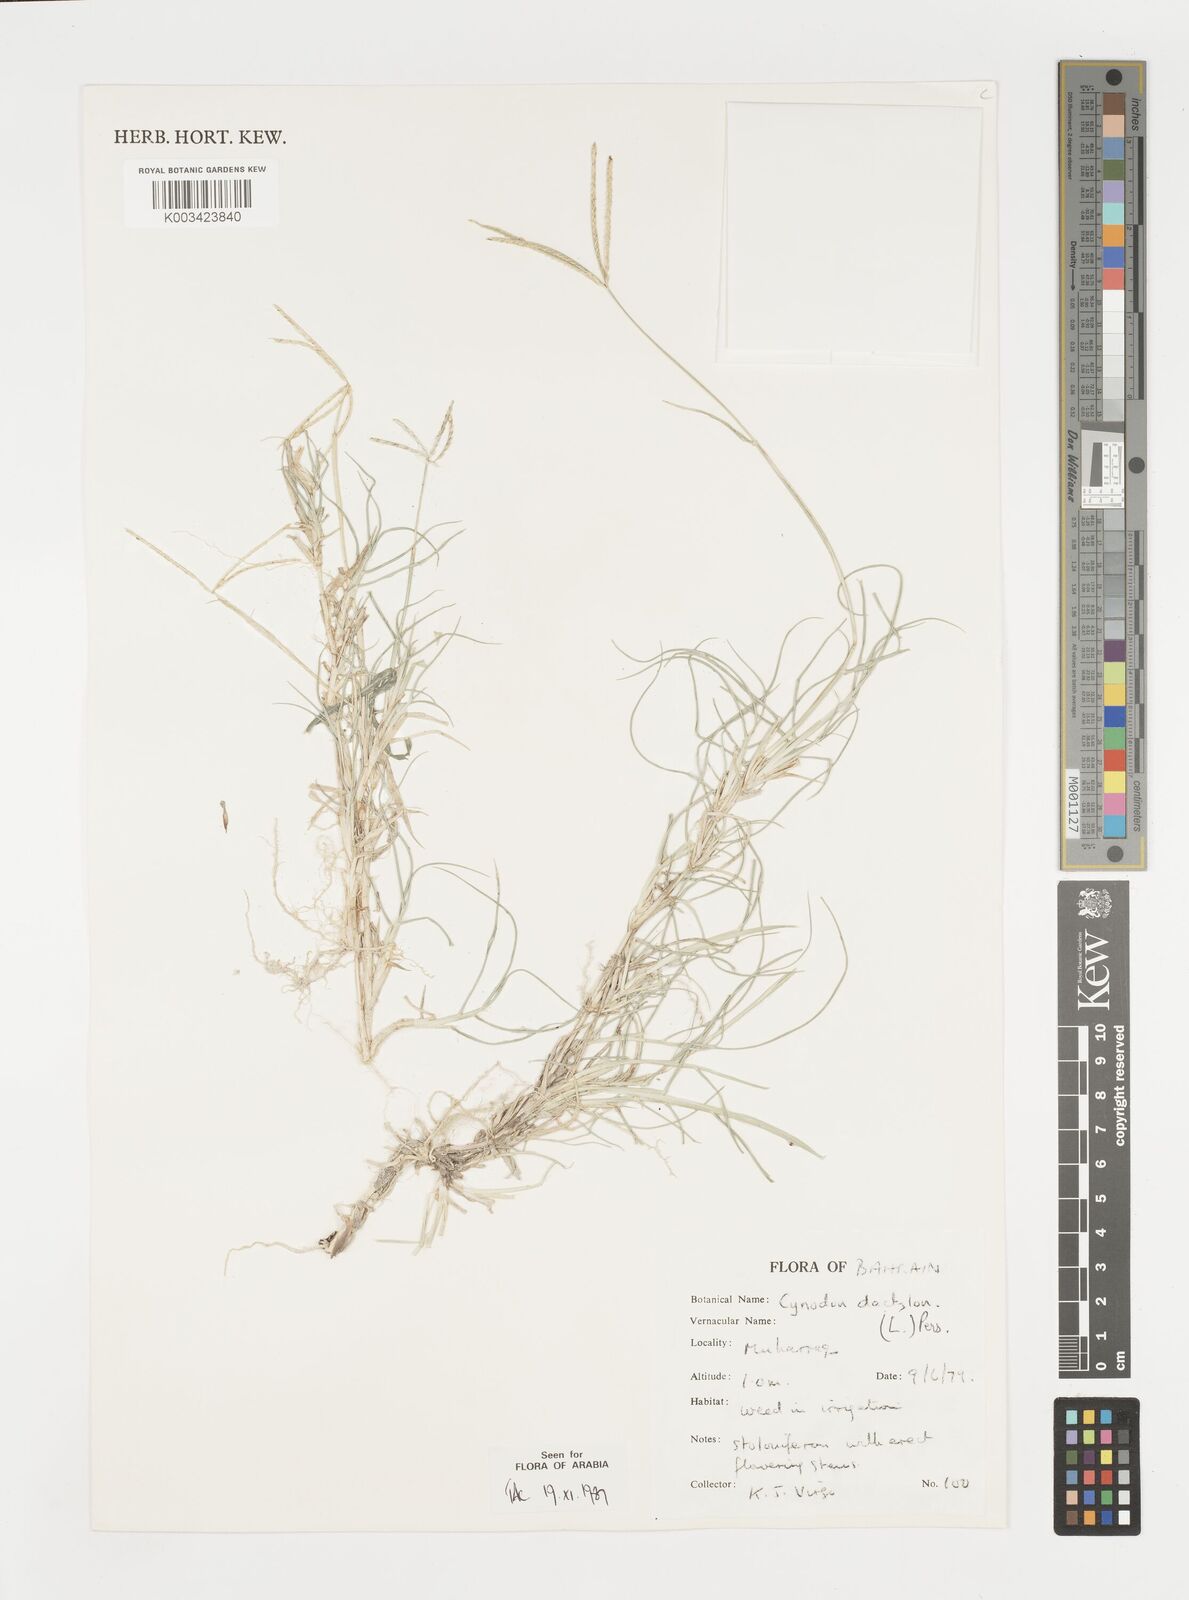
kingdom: Plantae
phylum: Tracheophyta
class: Liliopsida
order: Poales
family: Poaceae
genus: Cynodon
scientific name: Cynodon dactylon
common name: Bermuda grass
